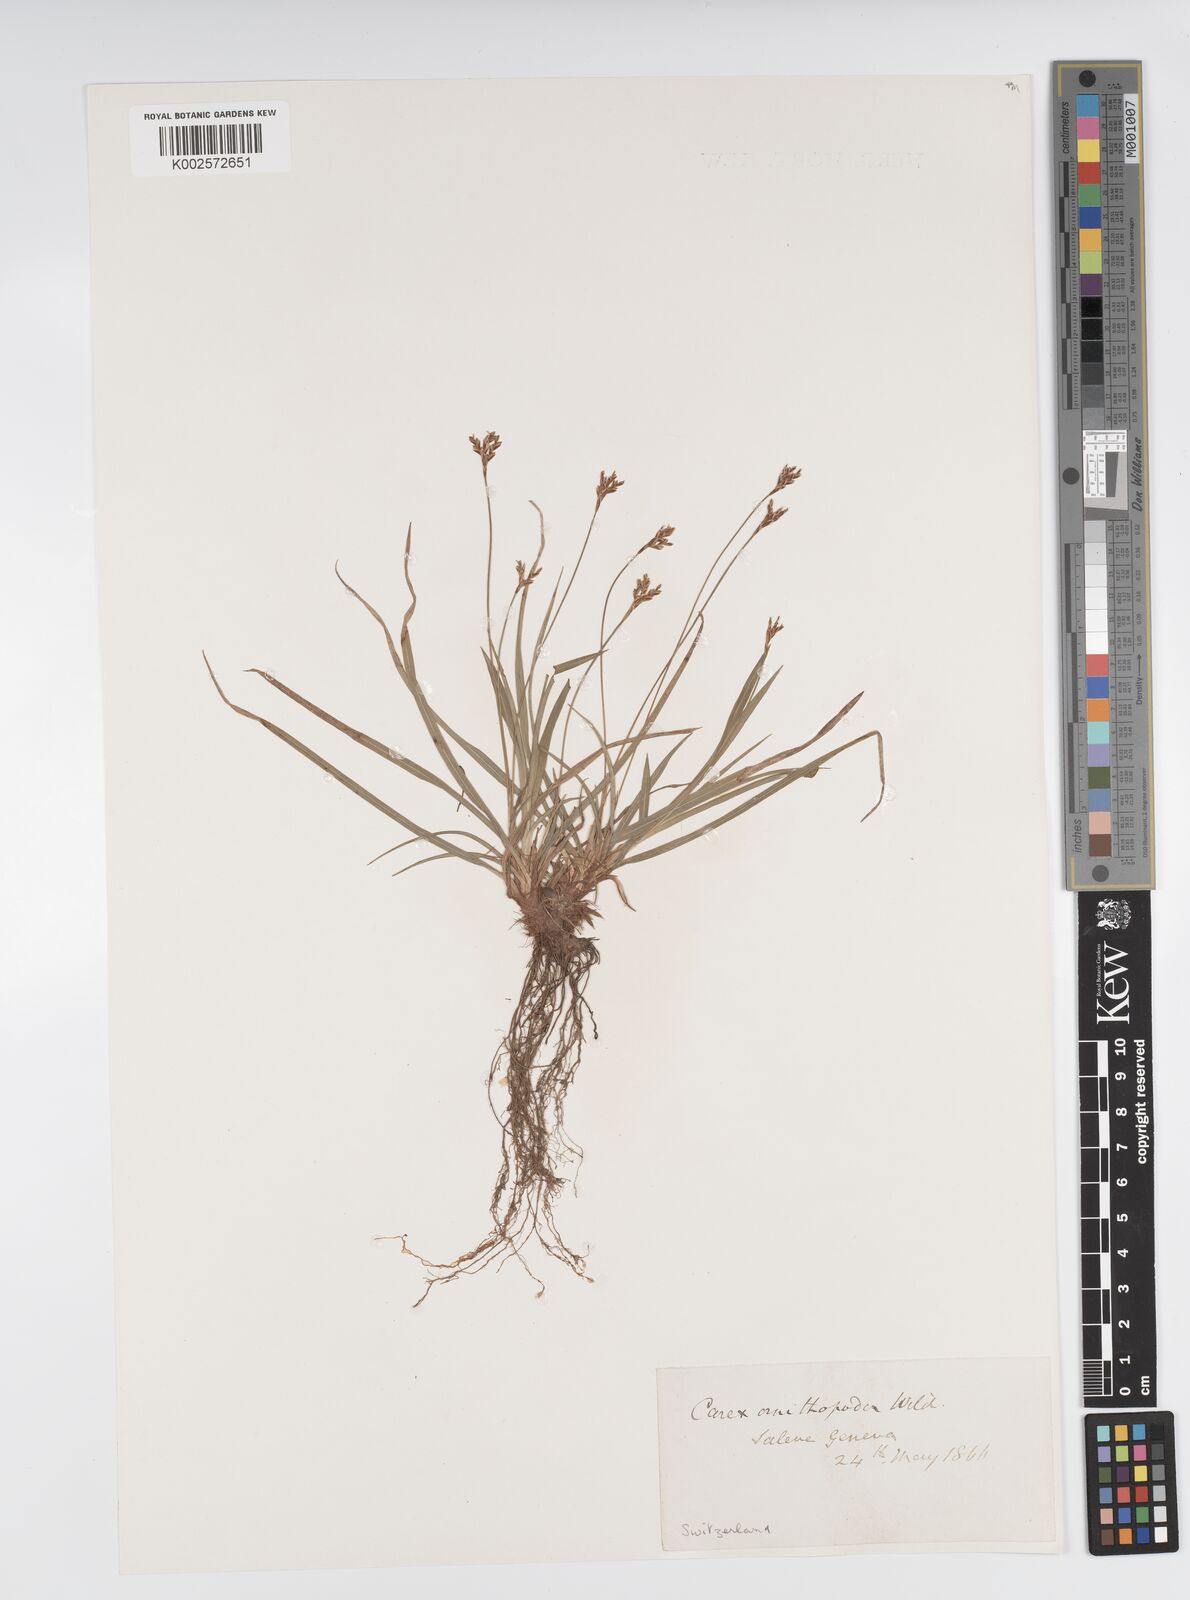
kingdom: Plantae
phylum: Tracheophyta
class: Liliopsida
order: Poales
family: Cyperaceae
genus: Carex
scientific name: Carex ornithopoda
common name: Bird's-foot sedge
